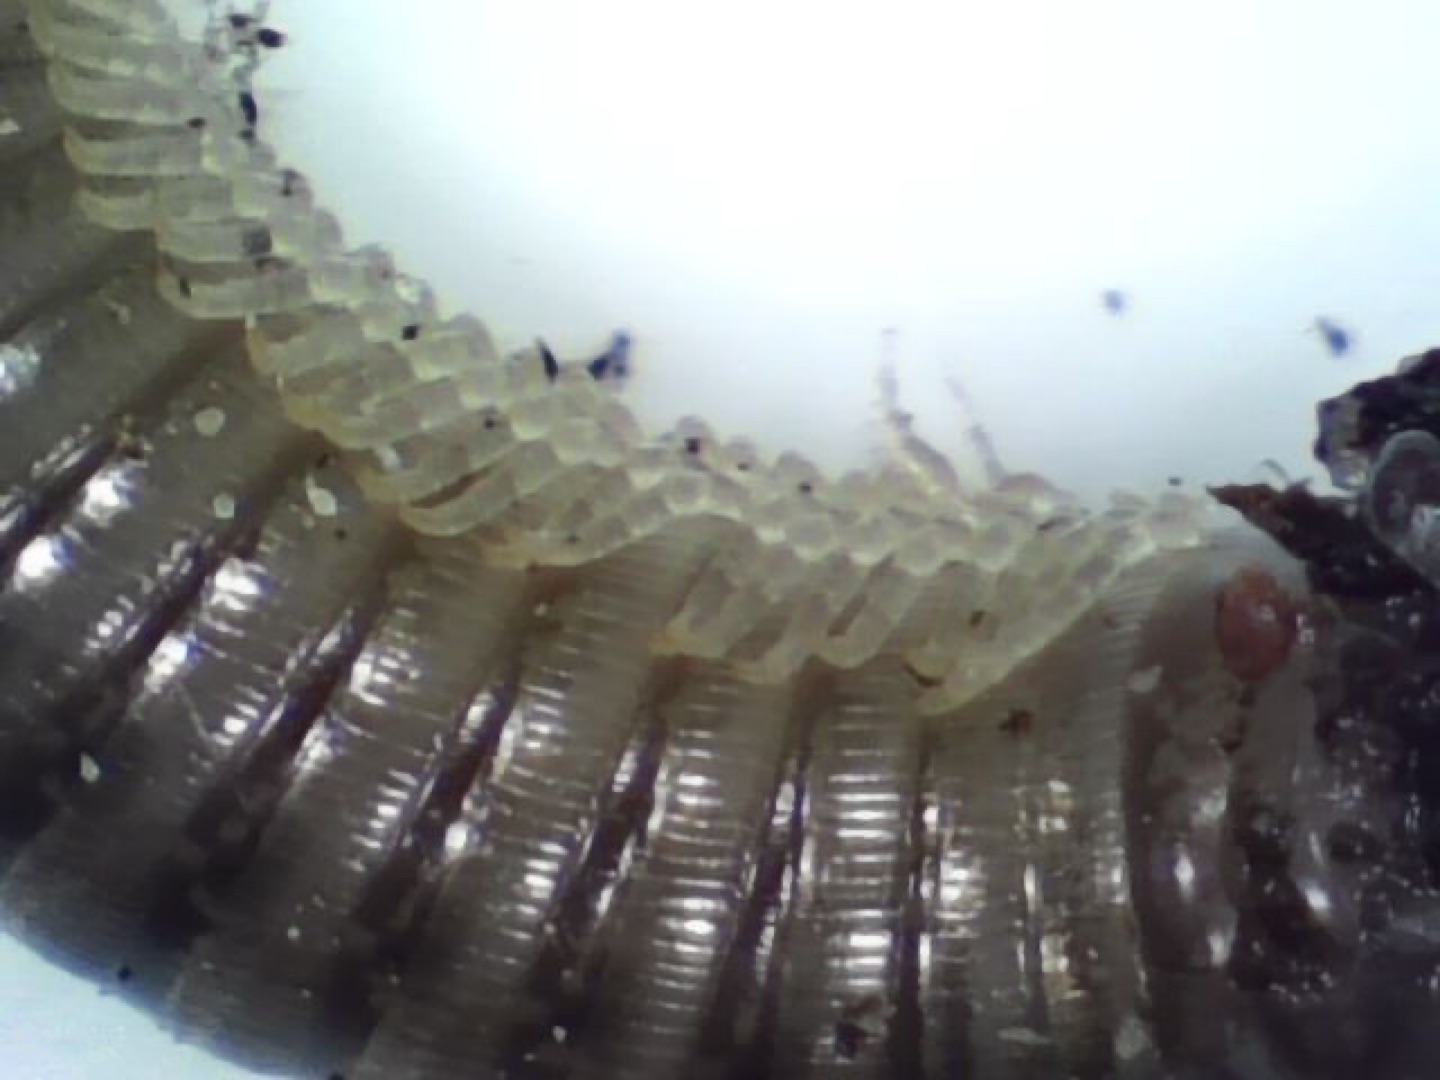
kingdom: Animalia
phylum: Arthropoda
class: Diplopoda
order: Julida
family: Julidae
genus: Cylindroiulus
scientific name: Cylindroiulus
